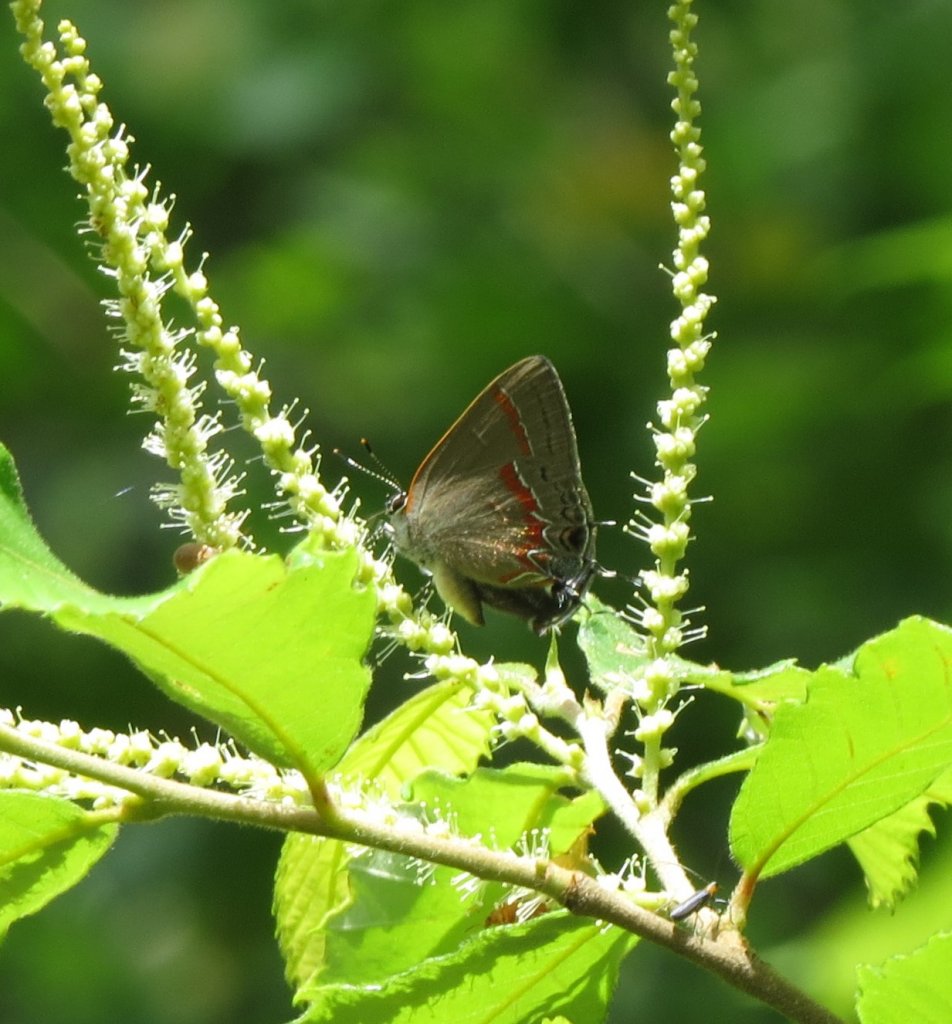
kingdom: Animalia
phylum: Arthropoda
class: Insecta
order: Lepidoptera
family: Lycaenidae
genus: Calycopis
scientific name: Calycopis cecrops
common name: Red-banded Hairstreak
